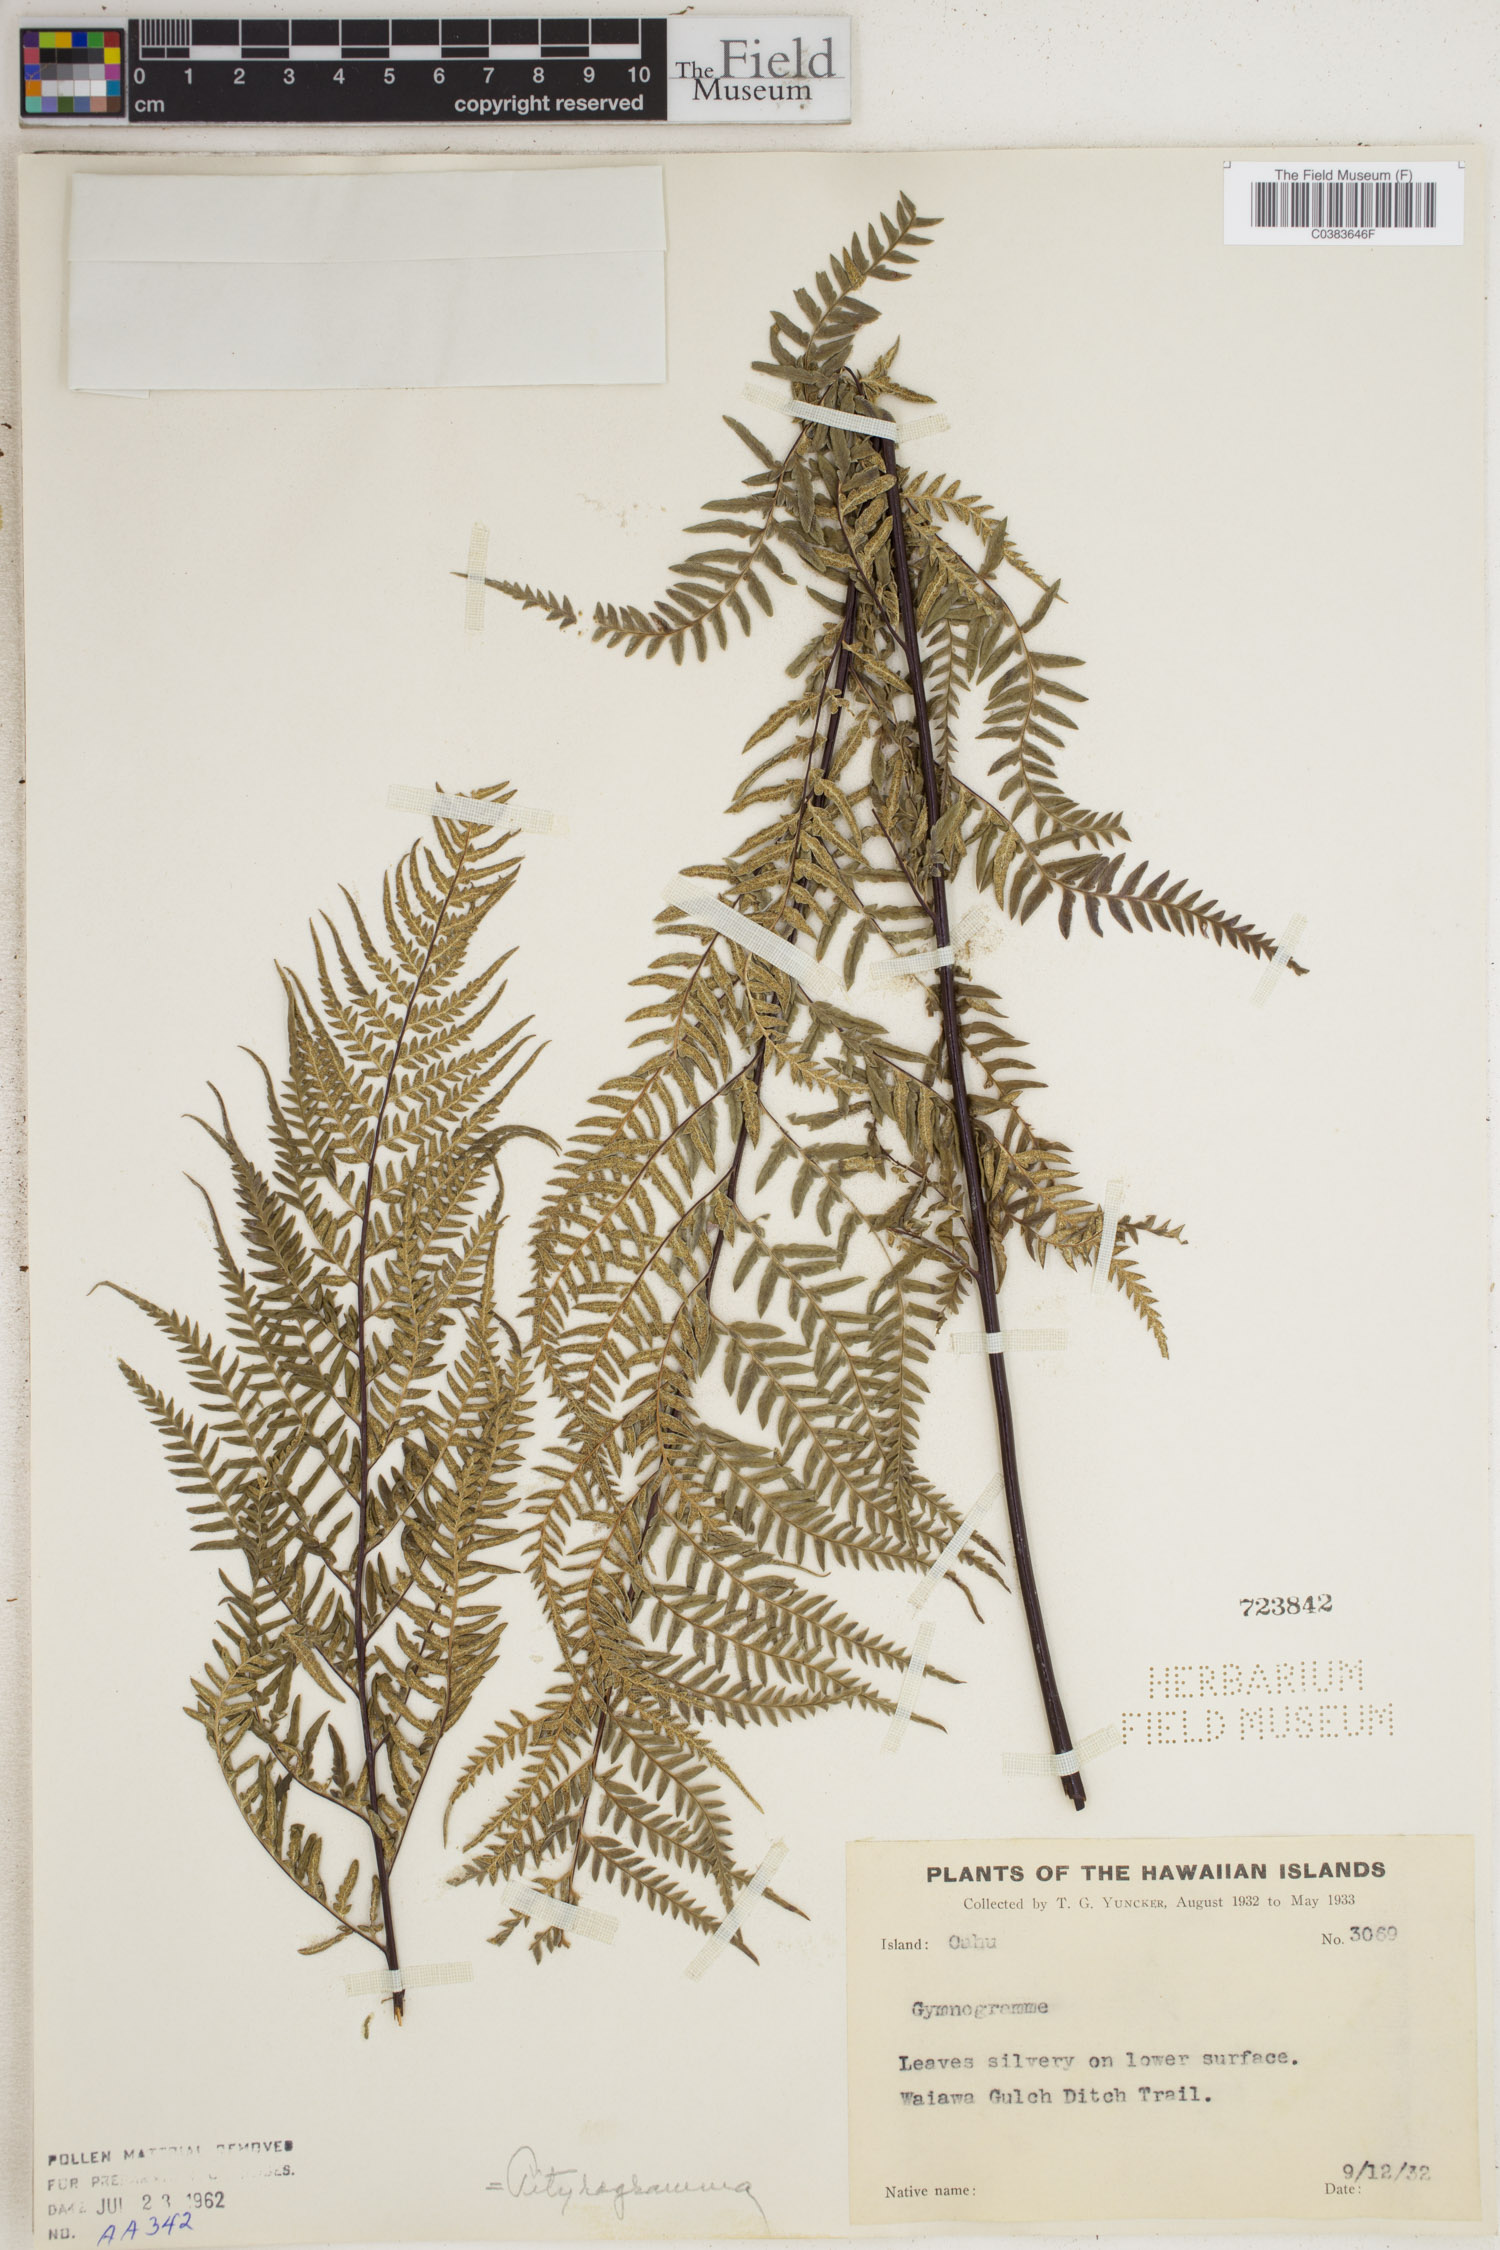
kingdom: Plantae
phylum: Tracheophyta
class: Polypodiopsida
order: Polypodiales
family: Pteridaceae
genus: Pityrogramma
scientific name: Pityrogramma
